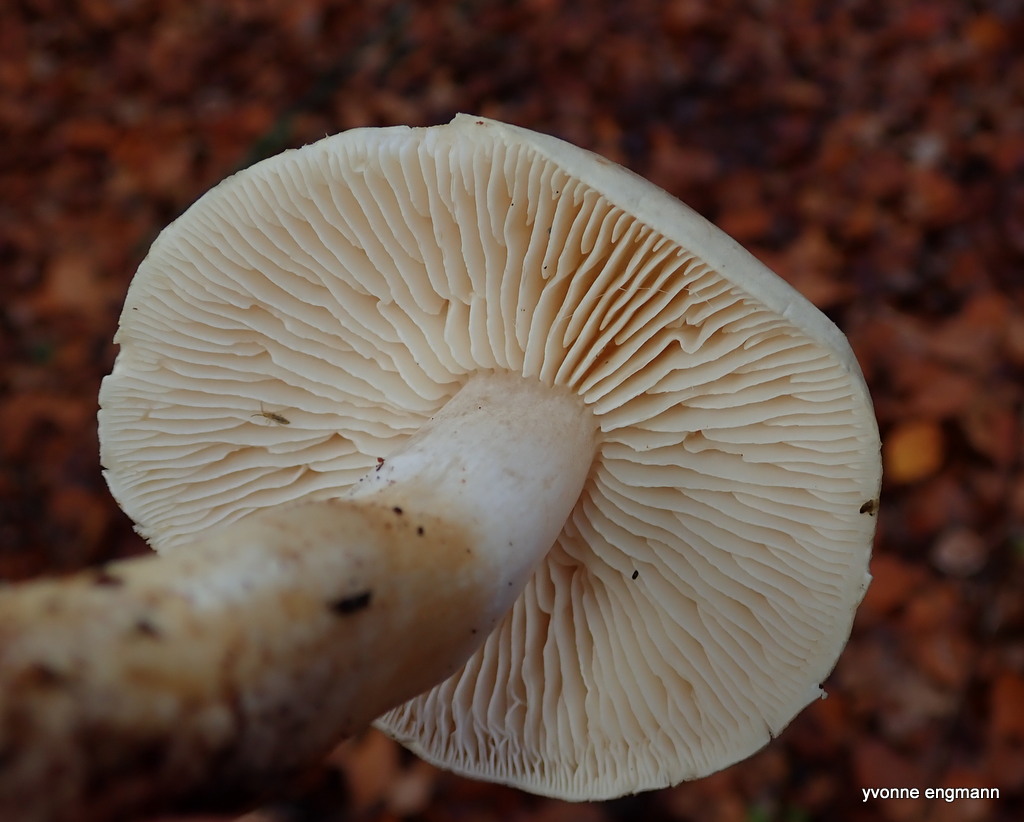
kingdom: Fungi
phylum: Basidiomycota
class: Agaricomycetes
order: Agaricales
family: Tricholomataceae
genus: Tricholoma
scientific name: Tricholoma lascivum
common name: stinkende ridderhat
